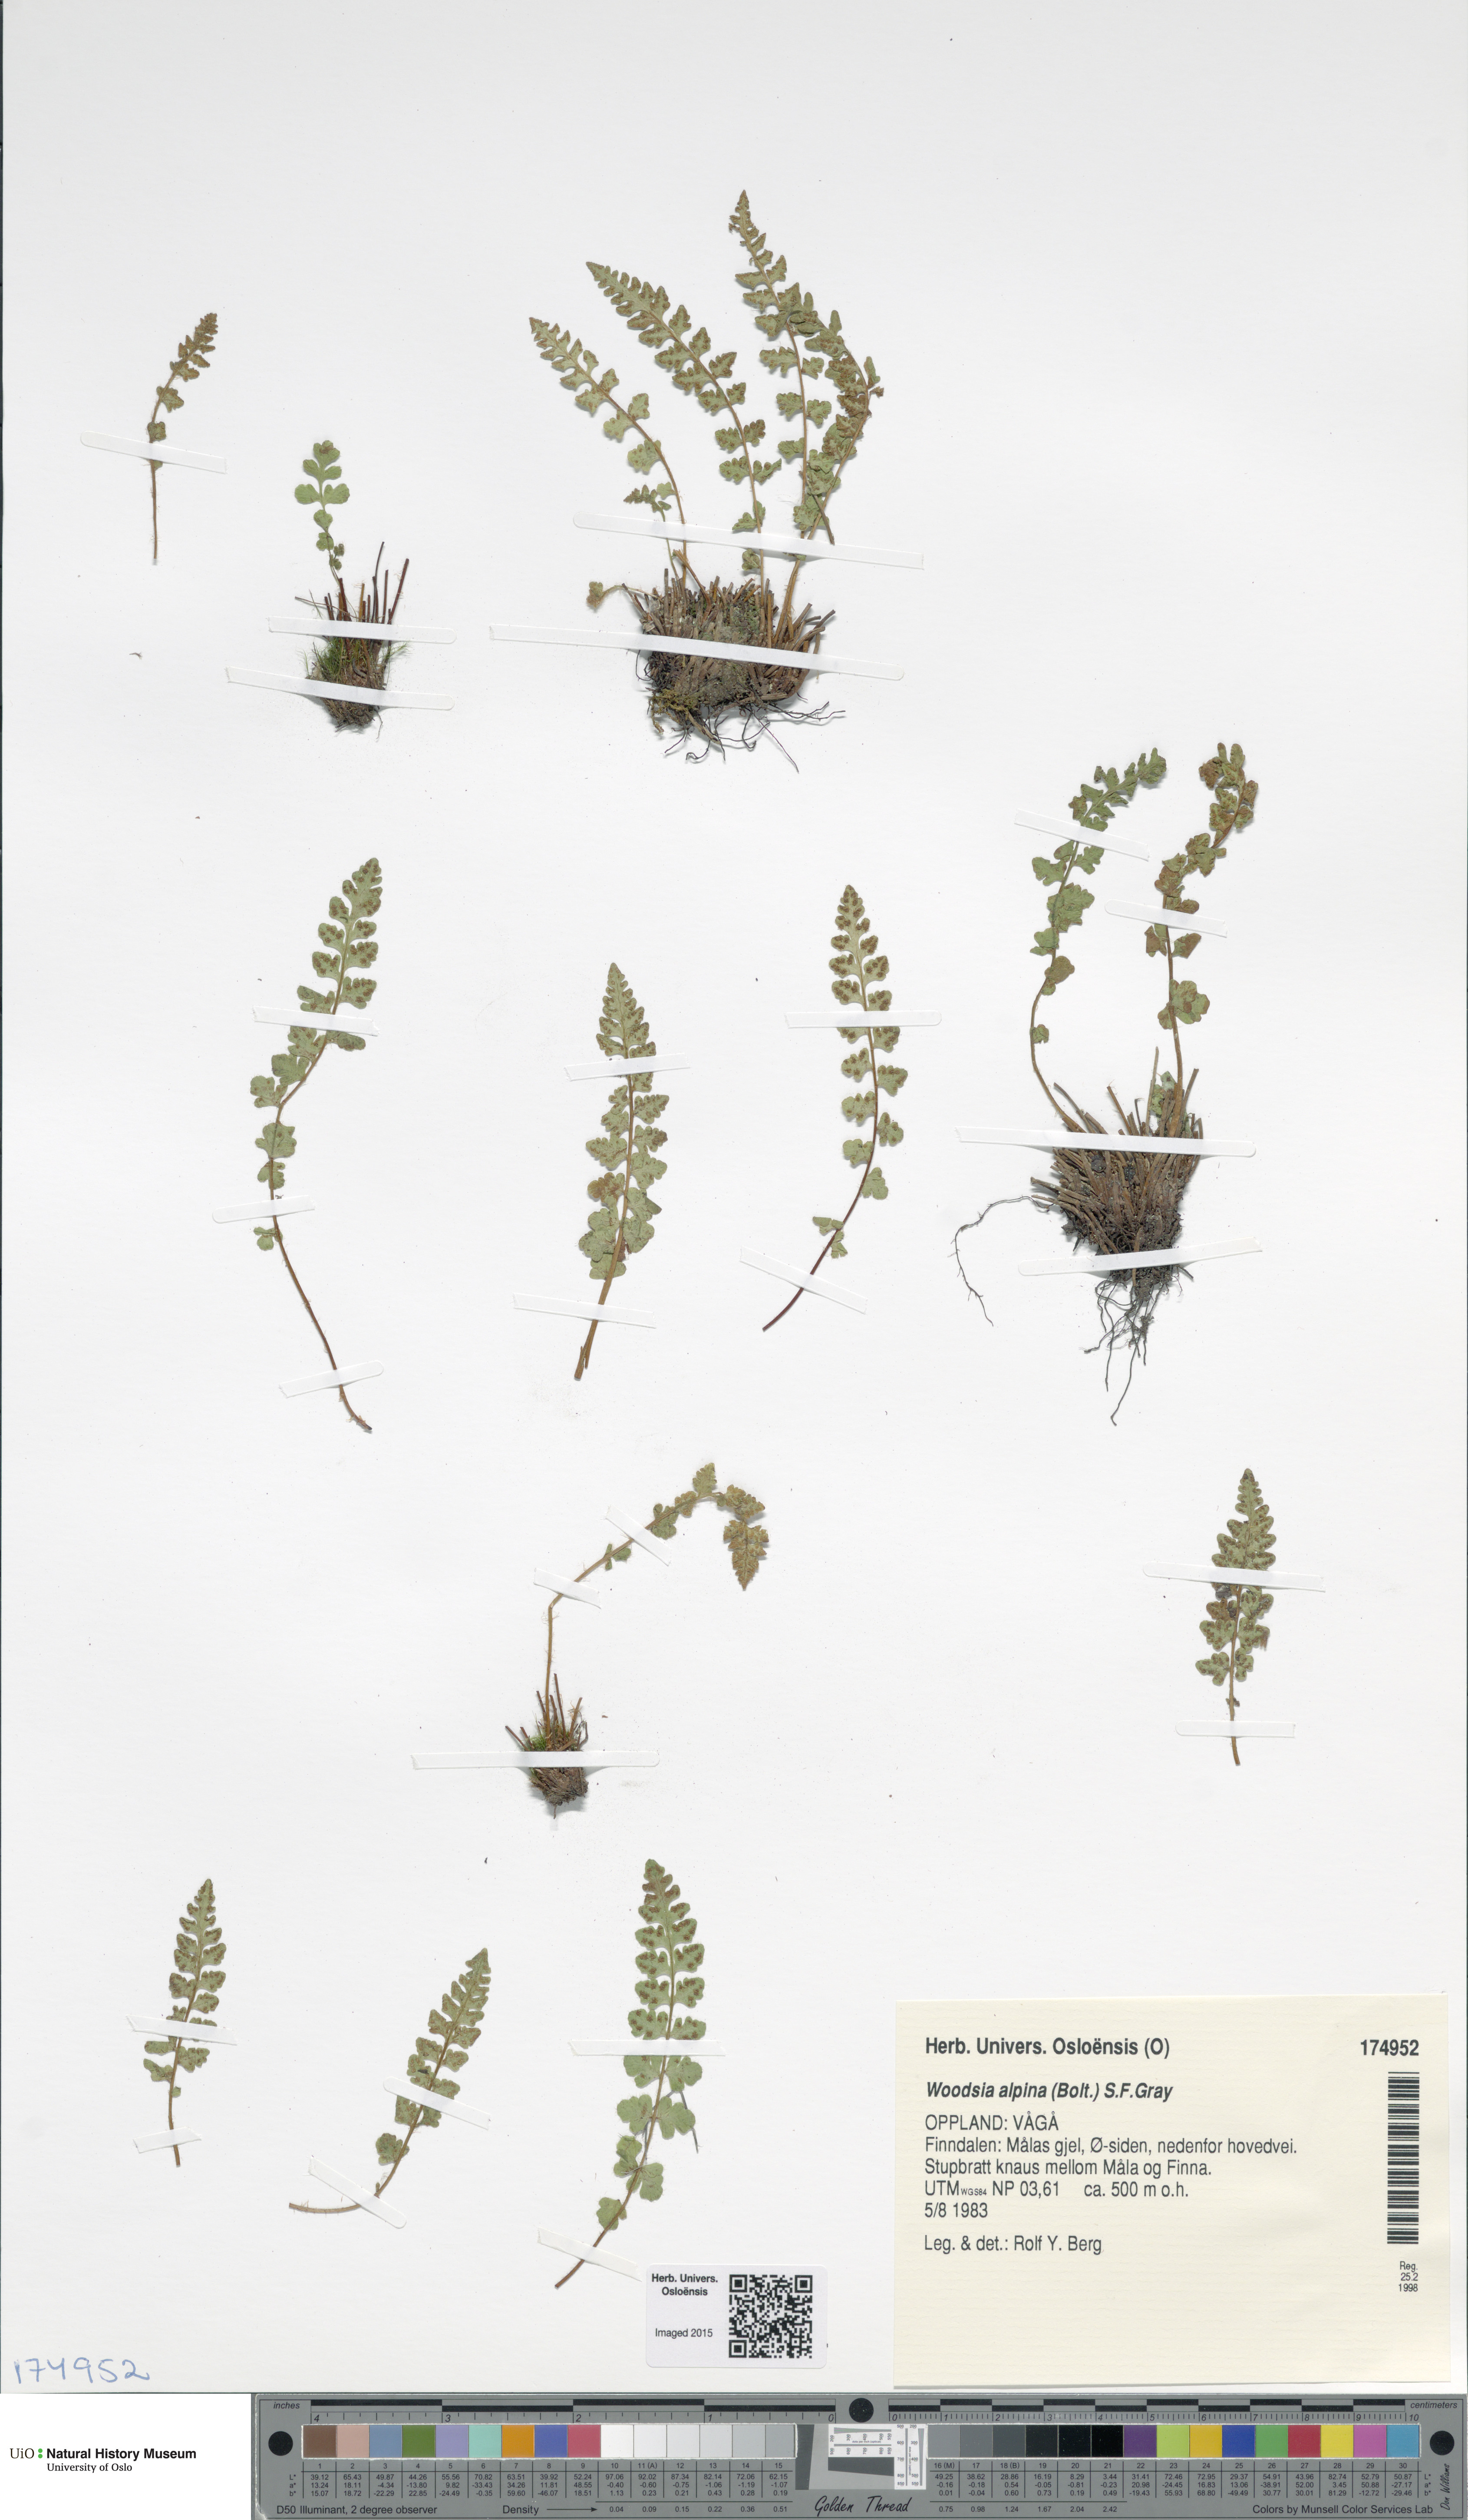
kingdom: Plantae
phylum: Tracheophyta
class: Polypodiopsida
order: Polypodiales
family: Woodsiaceae
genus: Woodsia
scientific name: Woodsia alpina
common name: Alpine woodsia
